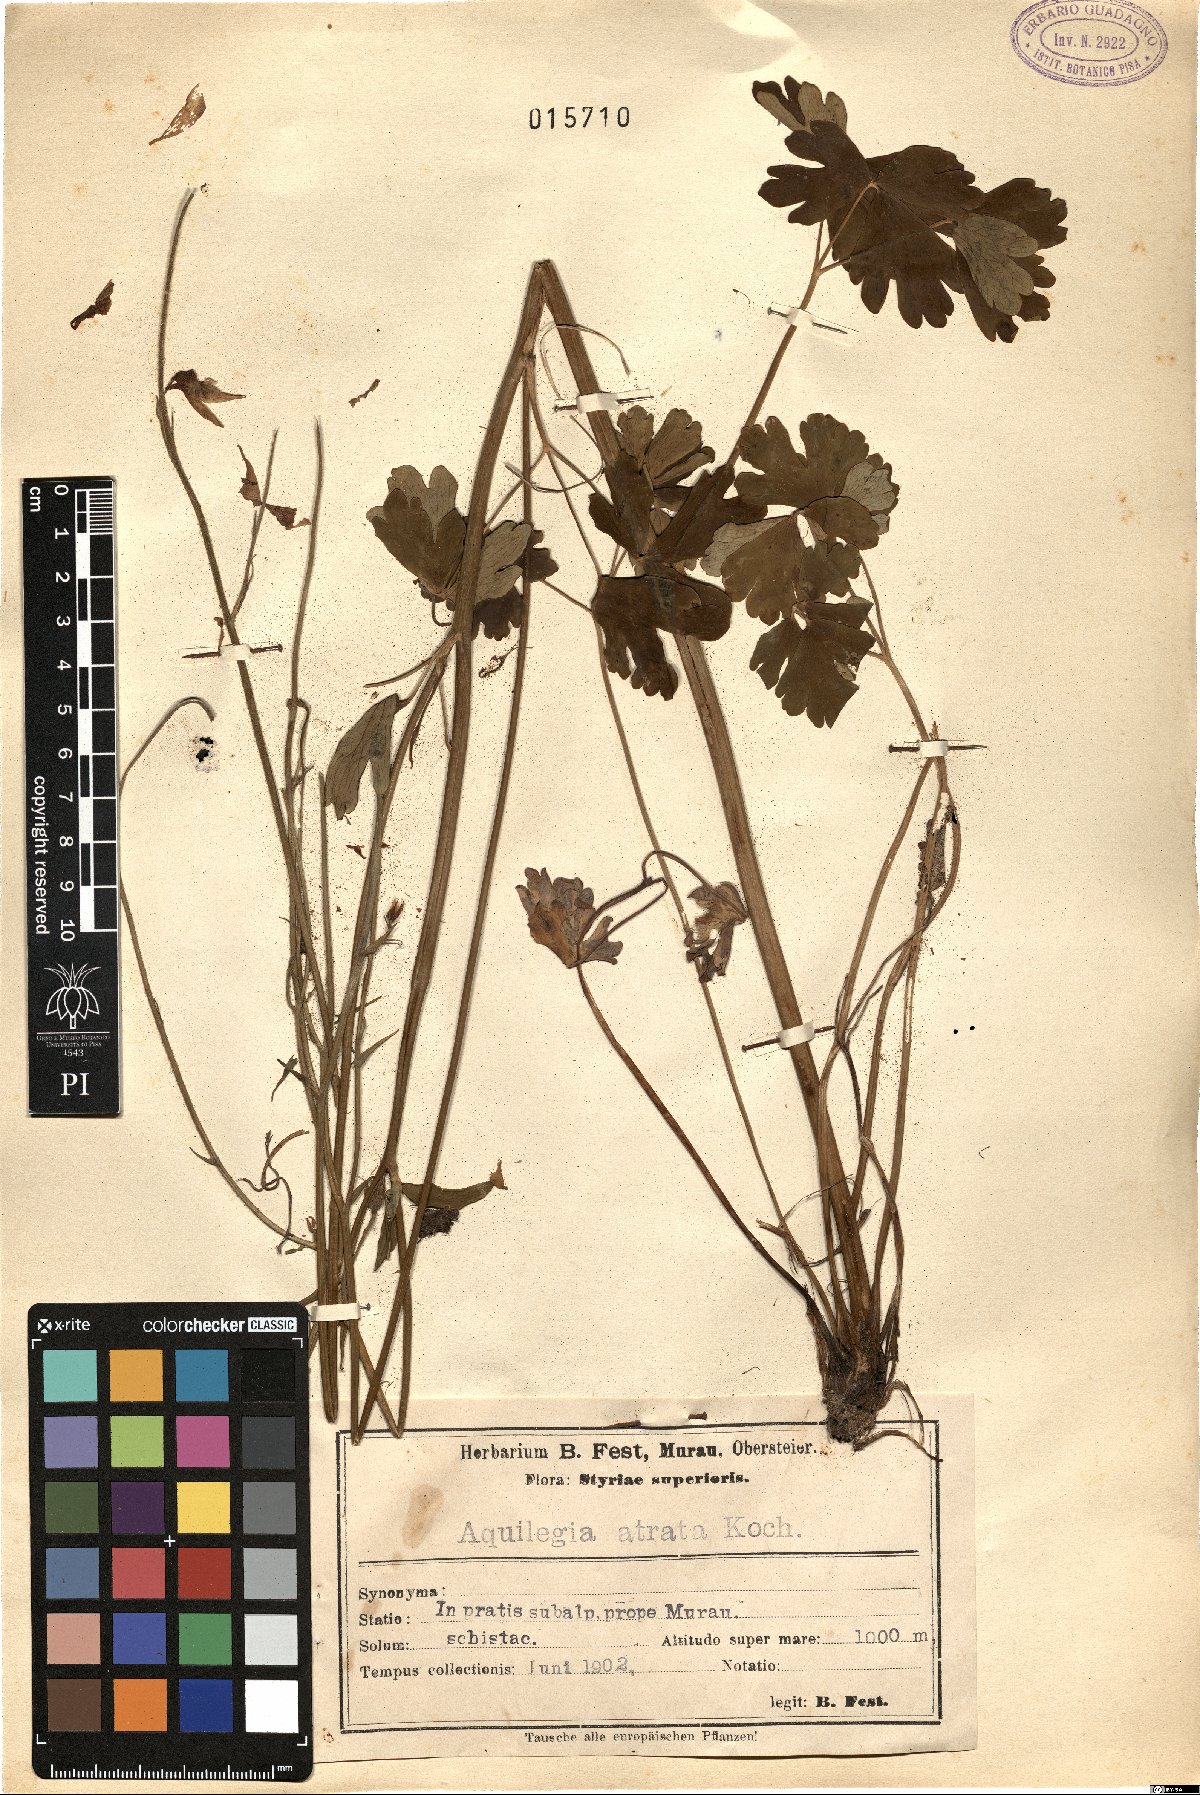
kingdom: Plantae
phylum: Tracheophyta
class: Magnoliopsida
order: Ranunculales
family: Ranunculaceae
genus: Aquilegia
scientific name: Aquilegia atrata
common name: Dark columbine
